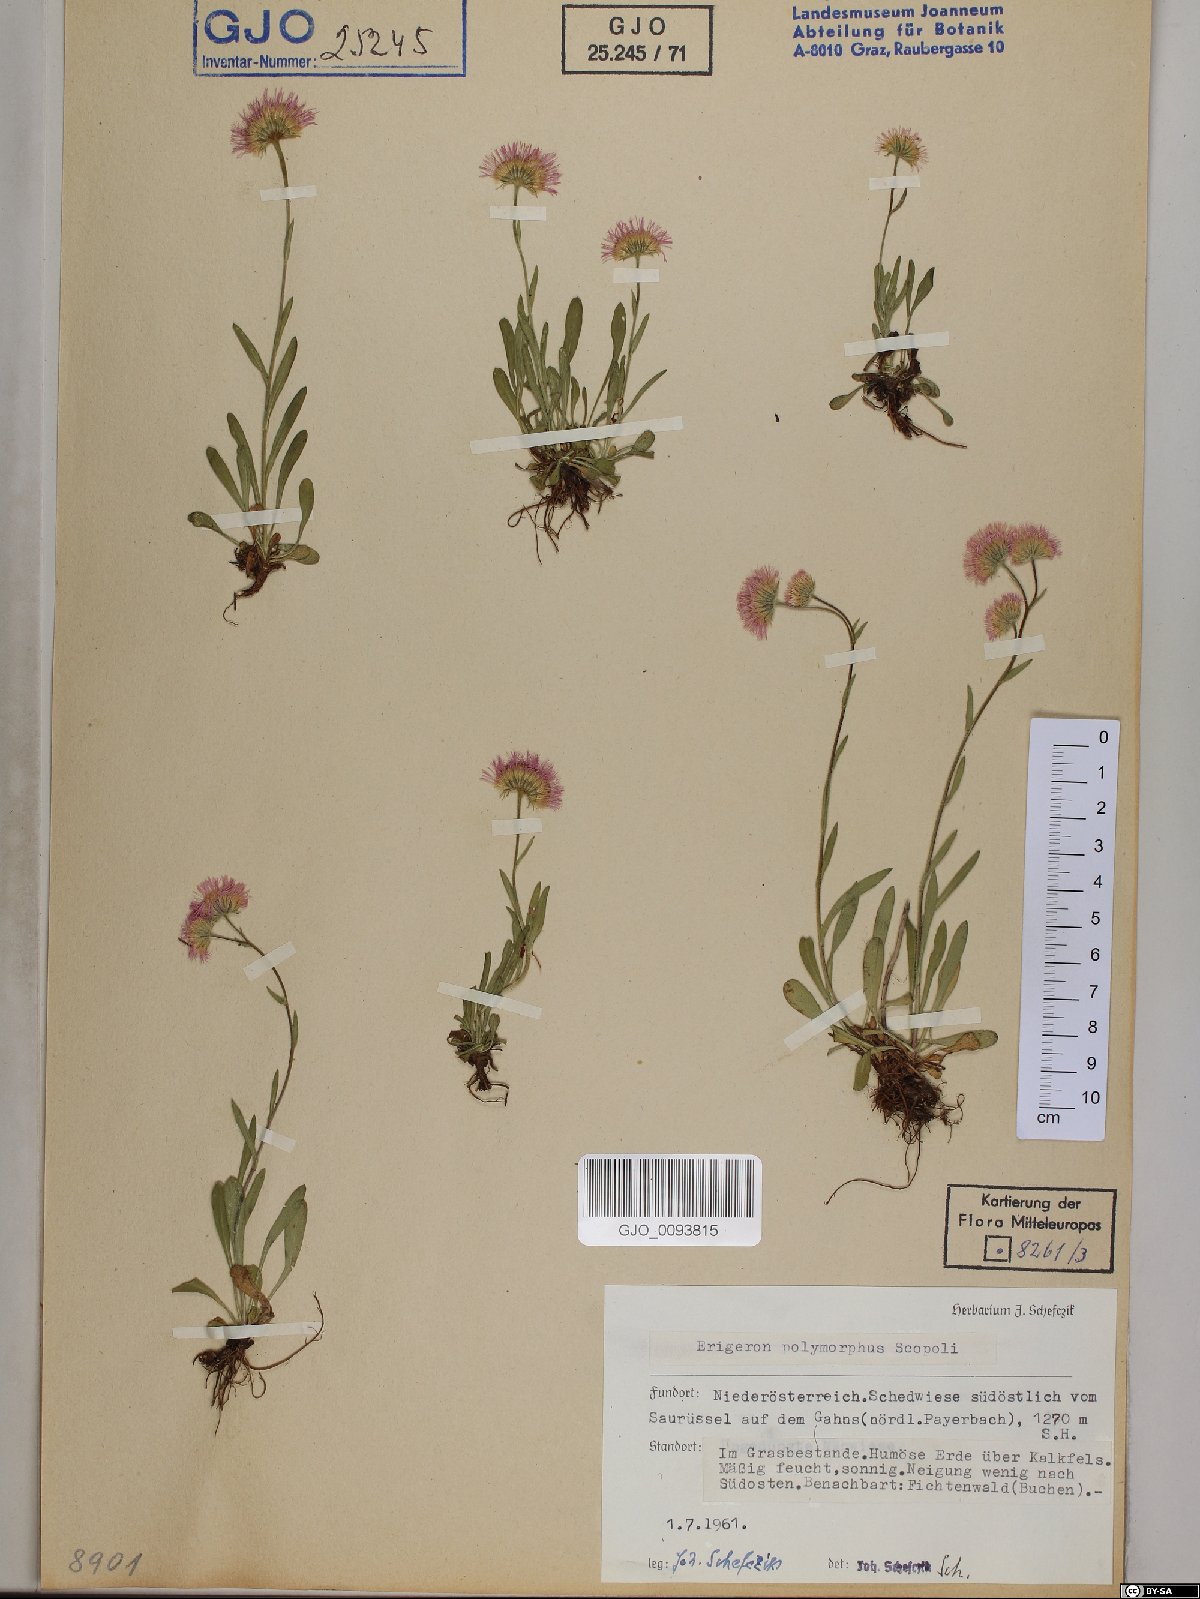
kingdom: Plantae
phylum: Tracheophyta
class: Magnoliopsida
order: Asterales
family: Asteraceae
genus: Erigeron
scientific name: Erigeron alpinus
